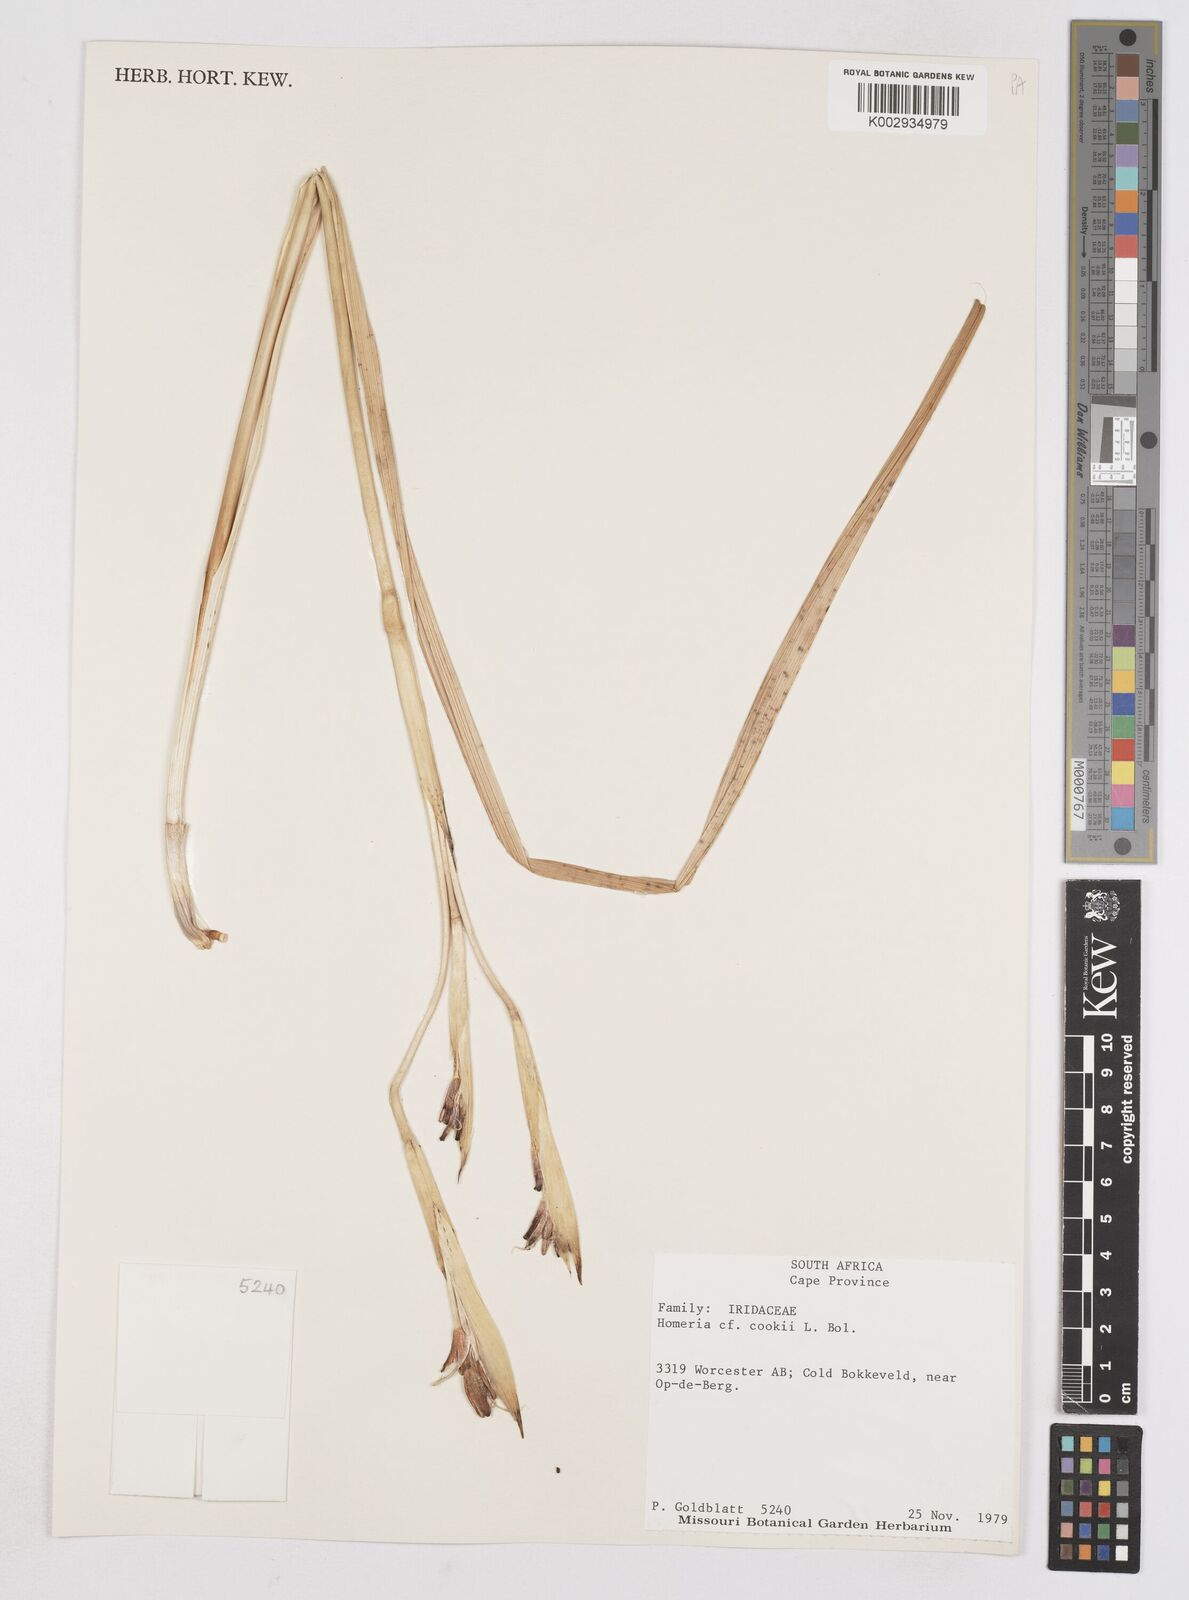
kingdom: Plantae
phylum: Tracheophyta
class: Liliopsida
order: Asparagales
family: Iridaceae
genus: Moraea
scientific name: Moraea cookii
